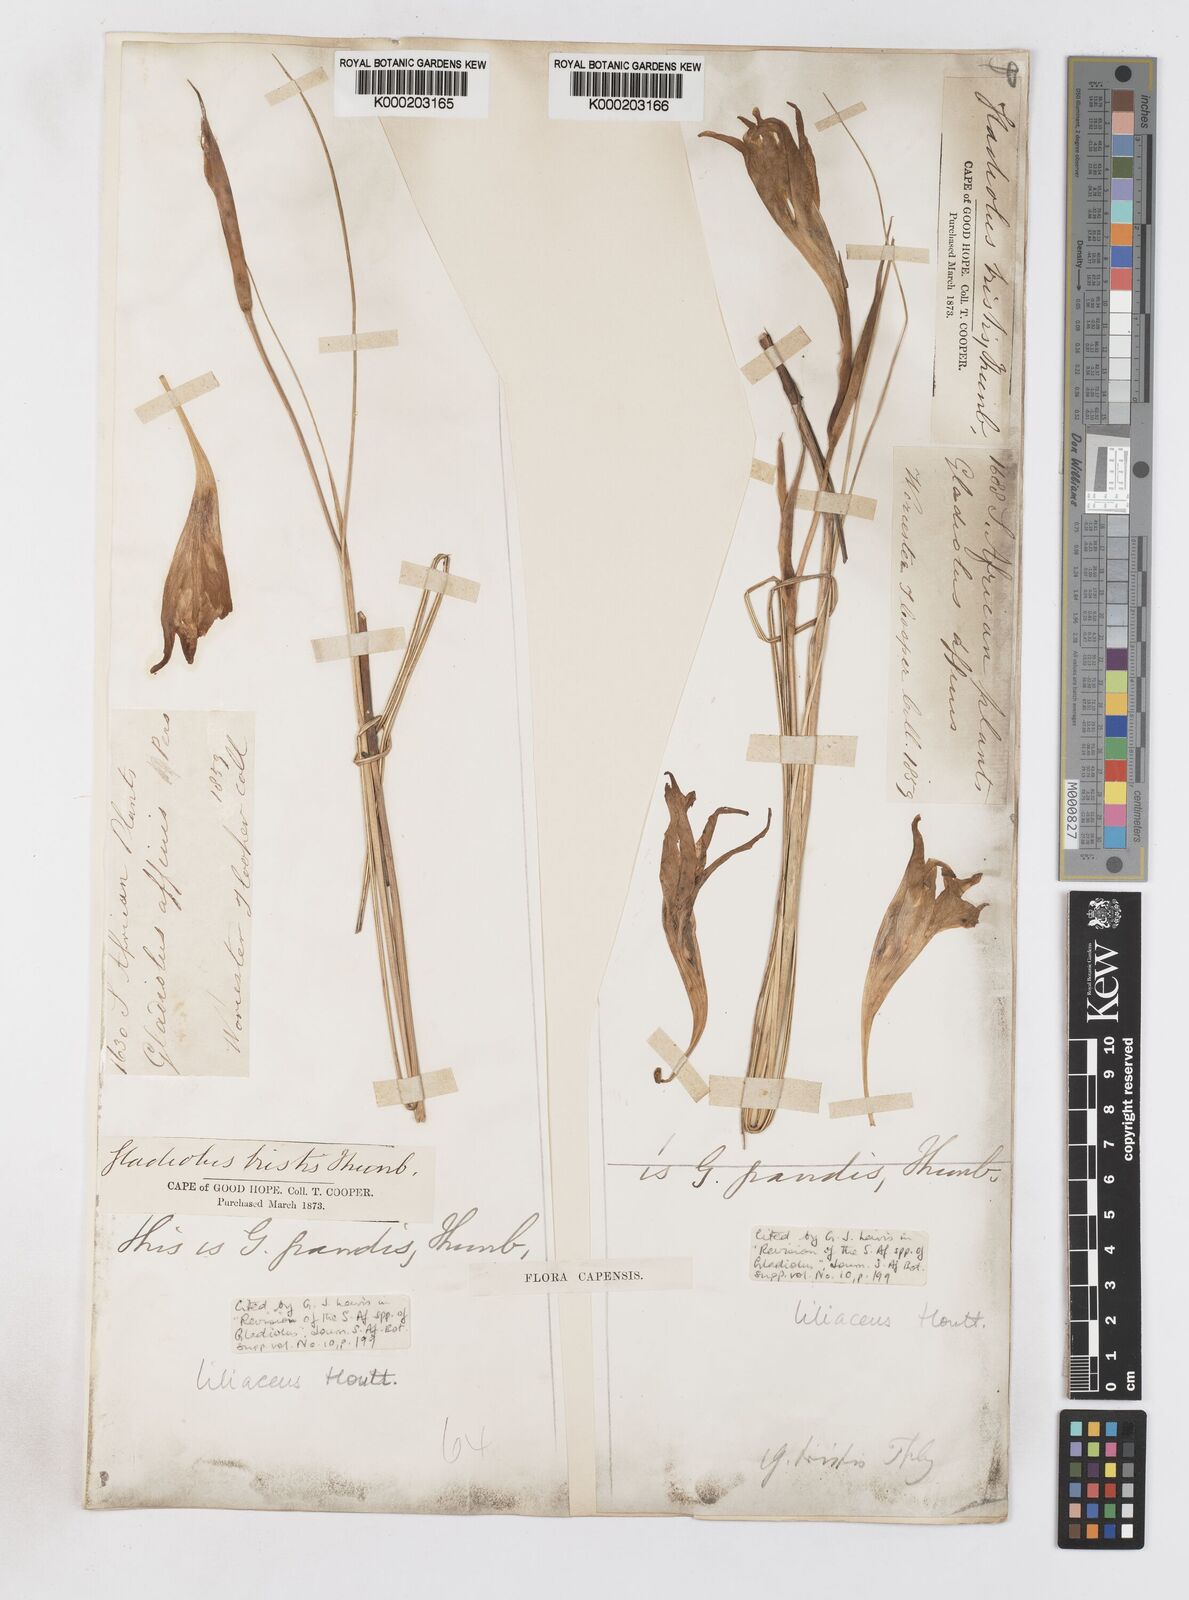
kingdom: Plantae
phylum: Tracheophyta
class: Liliopsida
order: Asparagales
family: Iridaceae
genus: Gladiolus
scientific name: Gladiolus liliaceus
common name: Large brown afrikaner
